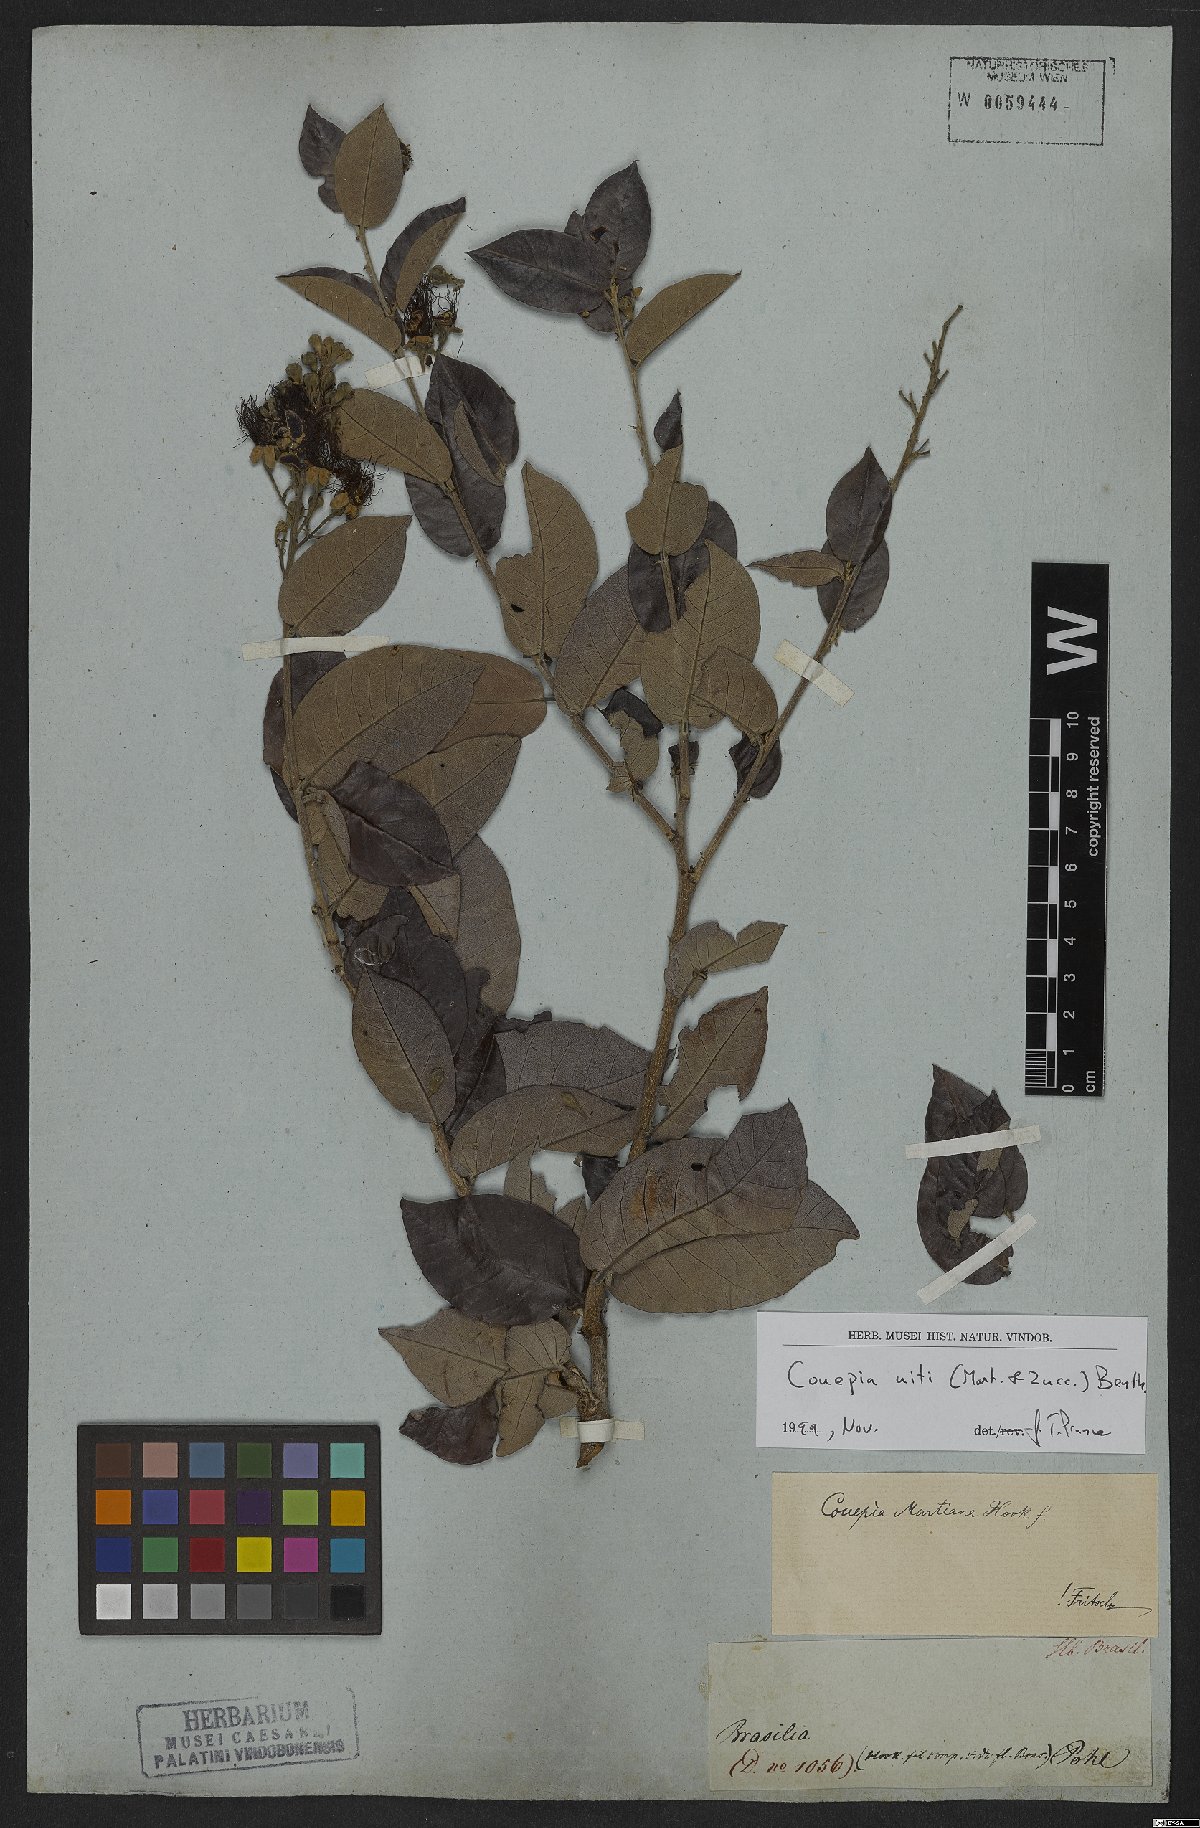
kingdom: Plantae
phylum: Tracheophyta
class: Magnoliopsida
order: Malpighiales
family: Chrysobalanaceae
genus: Couepia
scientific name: Couepia uiti
